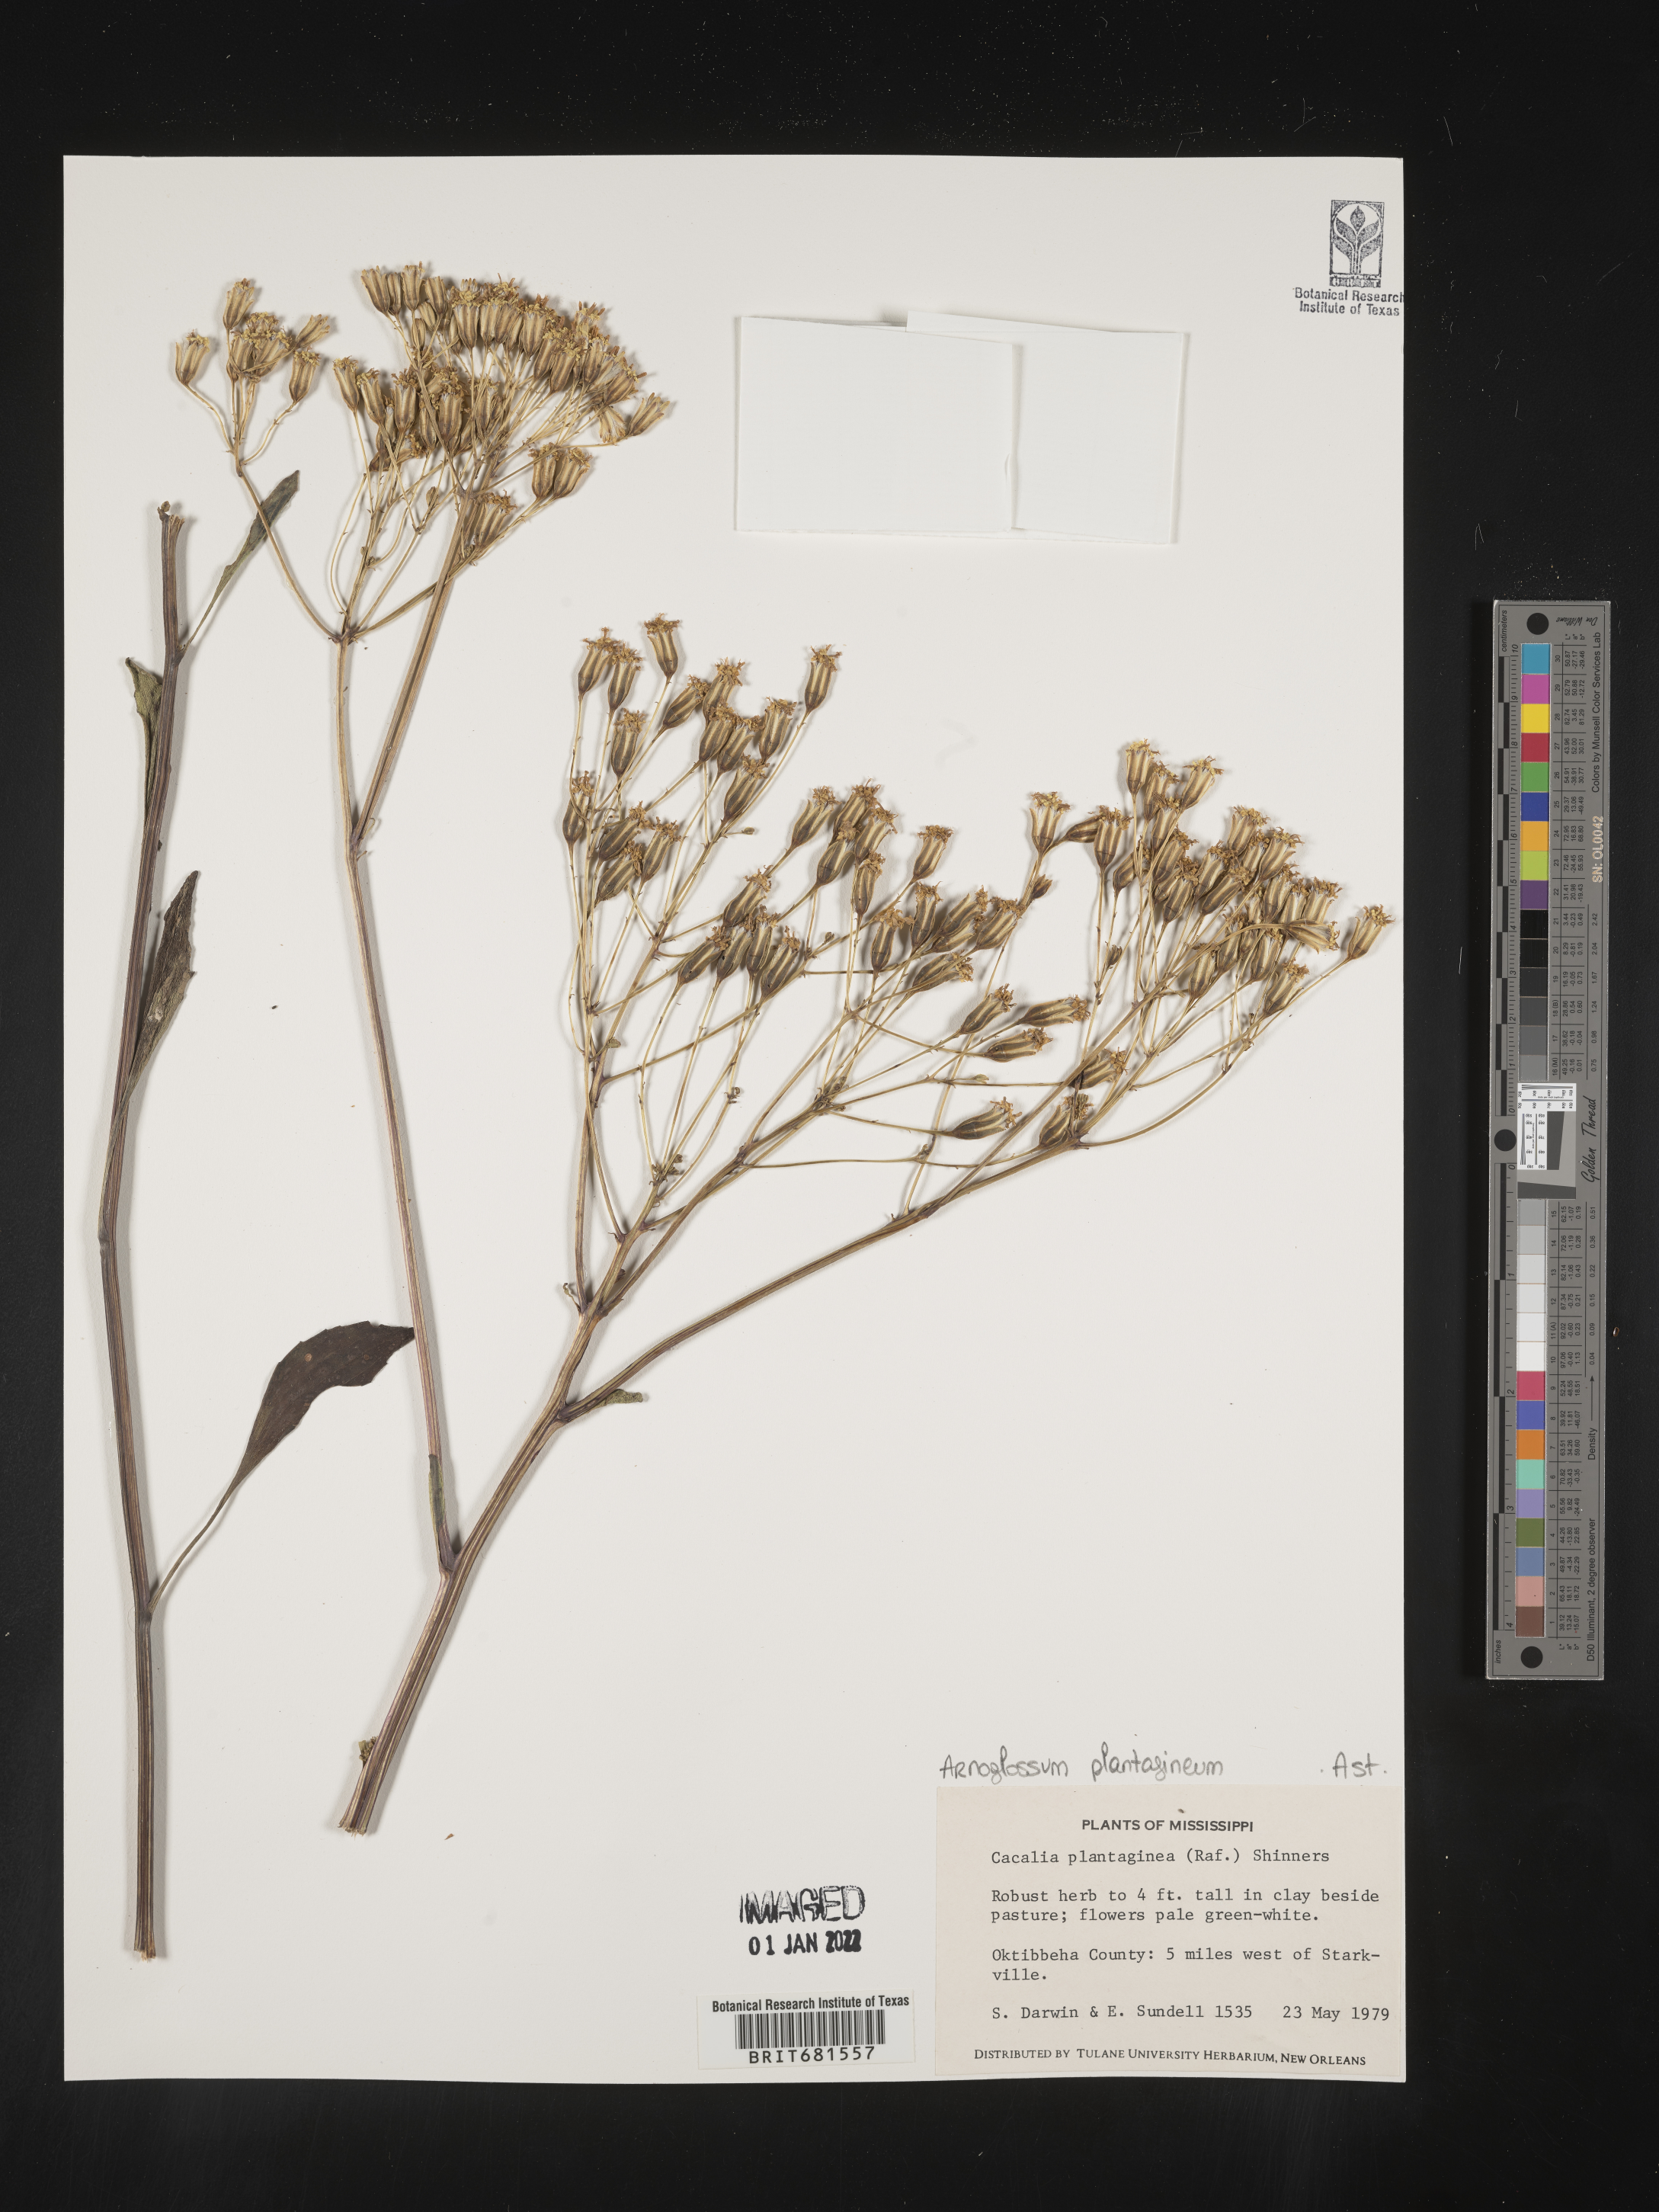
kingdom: Plantae
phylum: Tracheophyta
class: Magnoliopsida
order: Asterales
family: Asteraceae
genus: Arnoglossum
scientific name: Arnoglossum plantagineum
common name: Groove-stemmed indian-plantain
